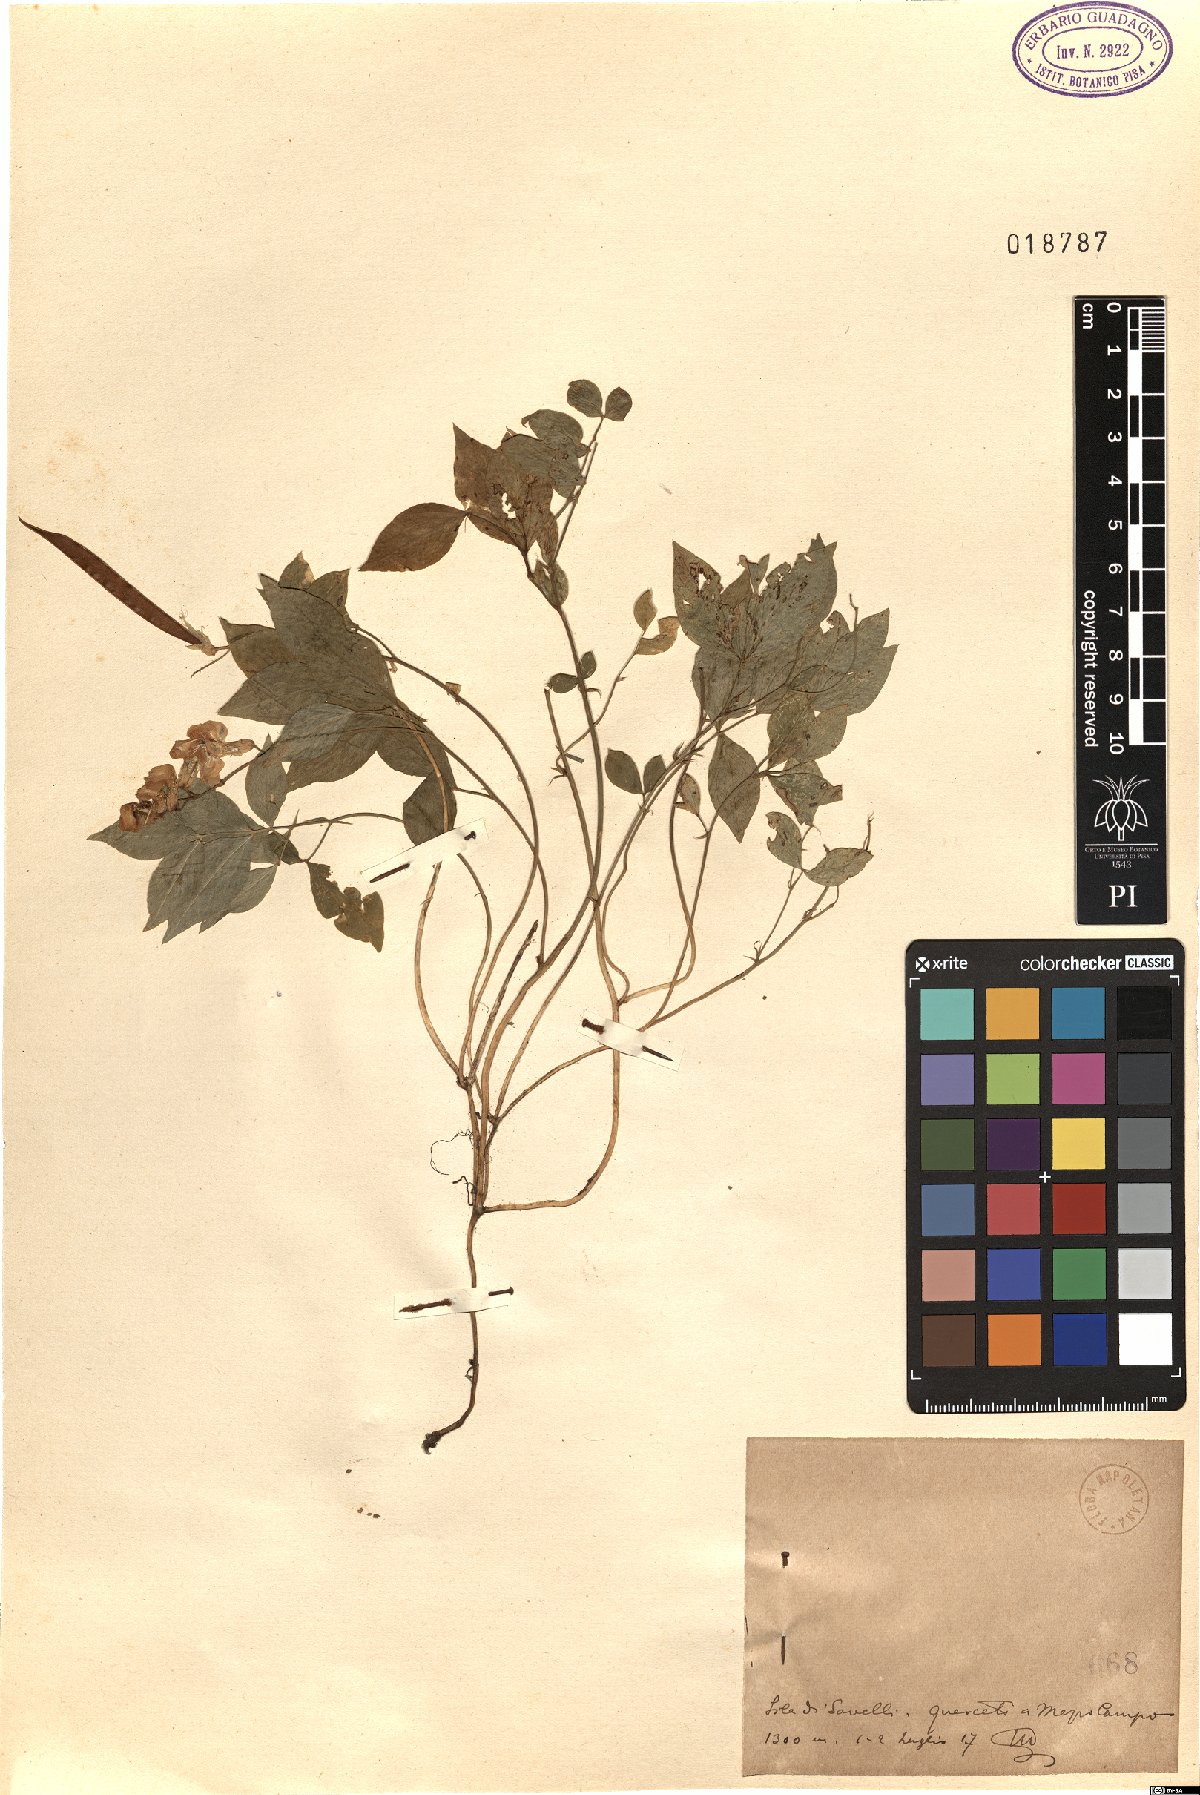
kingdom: Plantae
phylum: Tracheophyta
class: Magnoliopsida
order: Fabales
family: Fabaceae
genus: Lathyrus
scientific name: Lathyrus
